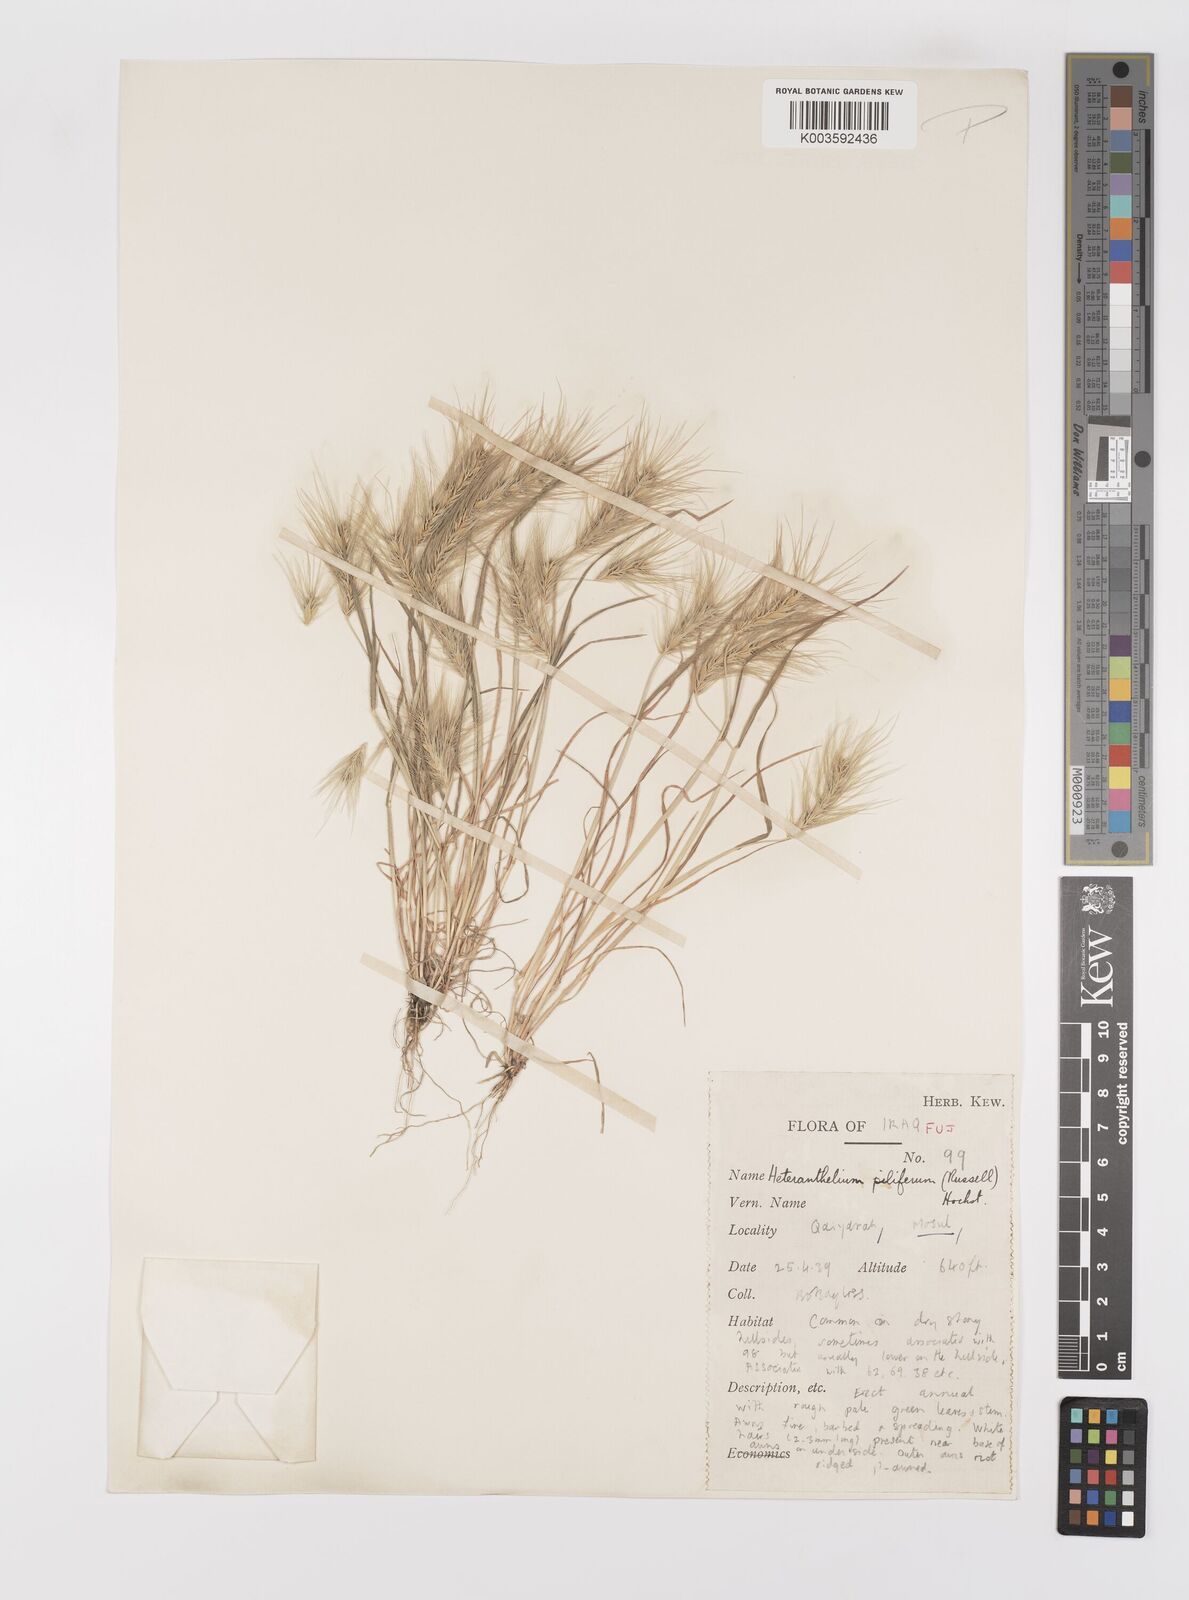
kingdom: Plantae
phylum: Tracheophyta
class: Liliopsida
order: Poales
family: Poaceae
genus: Heteranthelium
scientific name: Heteranthelium piliferum
